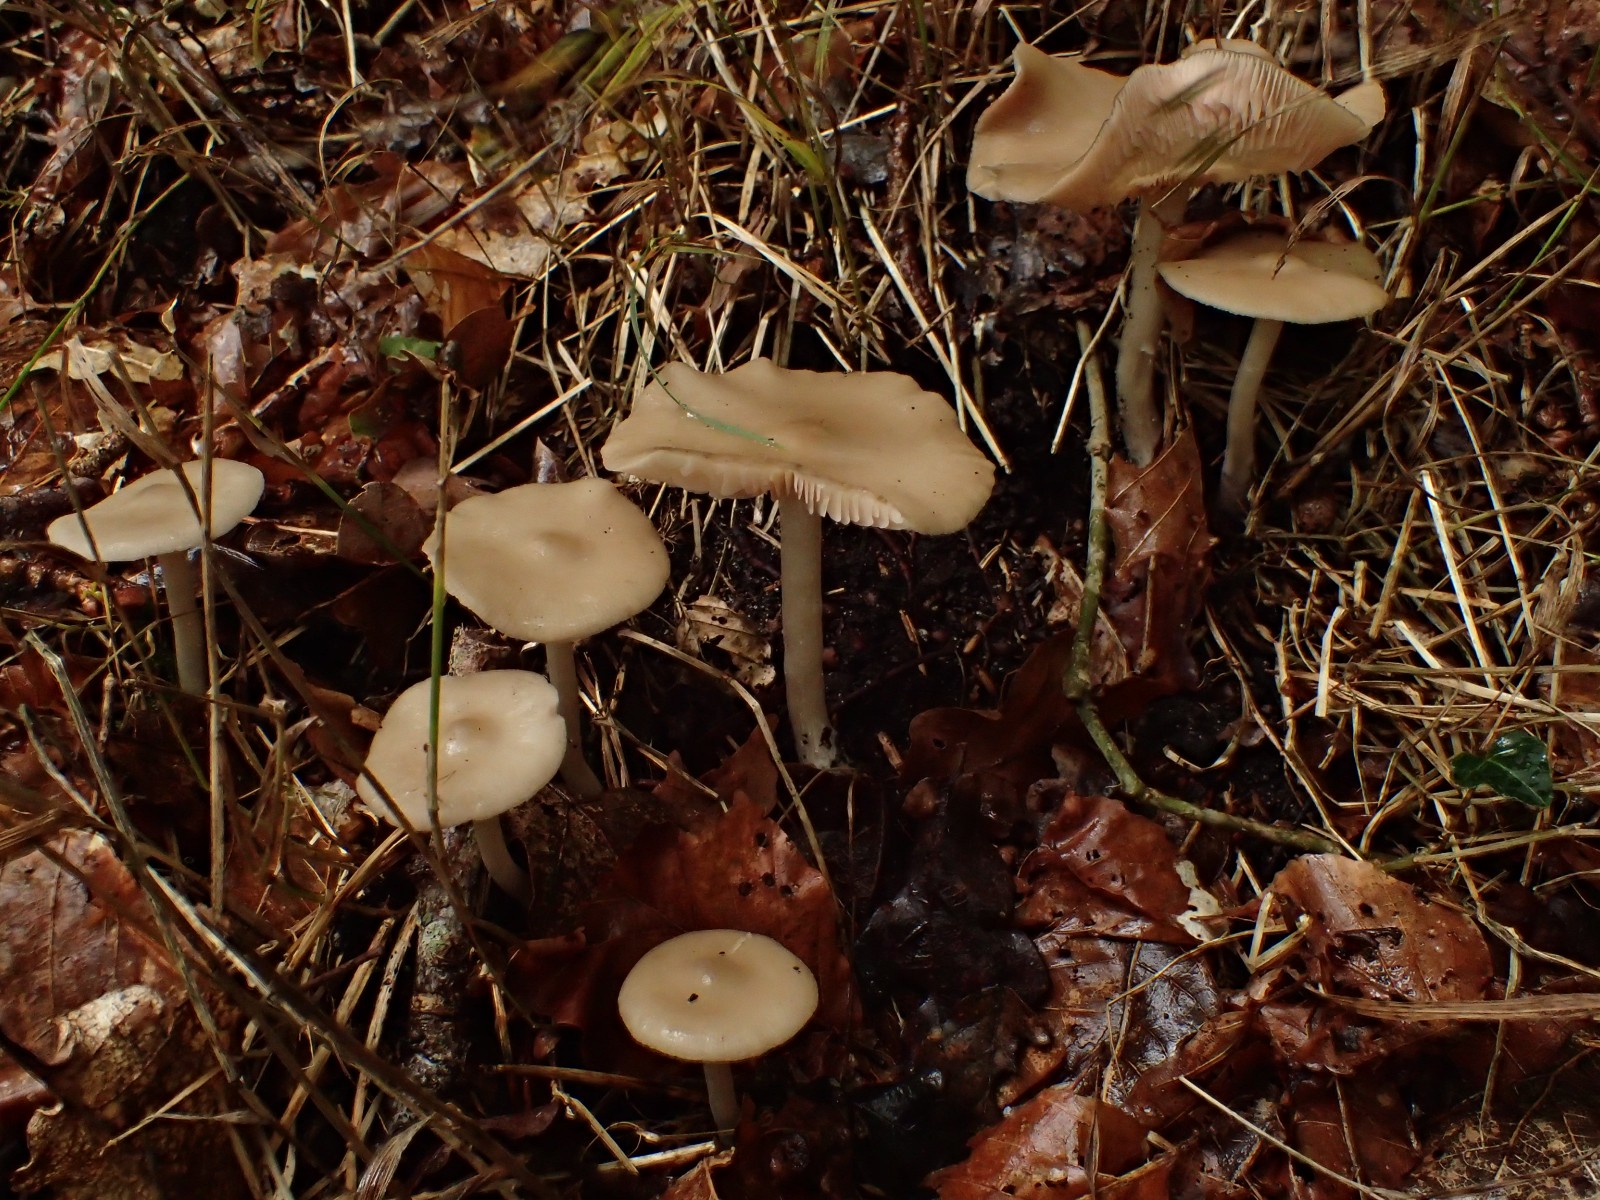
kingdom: Fungi
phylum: Basidiomycota
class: Agaricomycetes
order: Agaricales
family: Entolomataceae
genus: Entoloma
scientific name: Entoloma rhodopolium
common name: skov-rødblad
